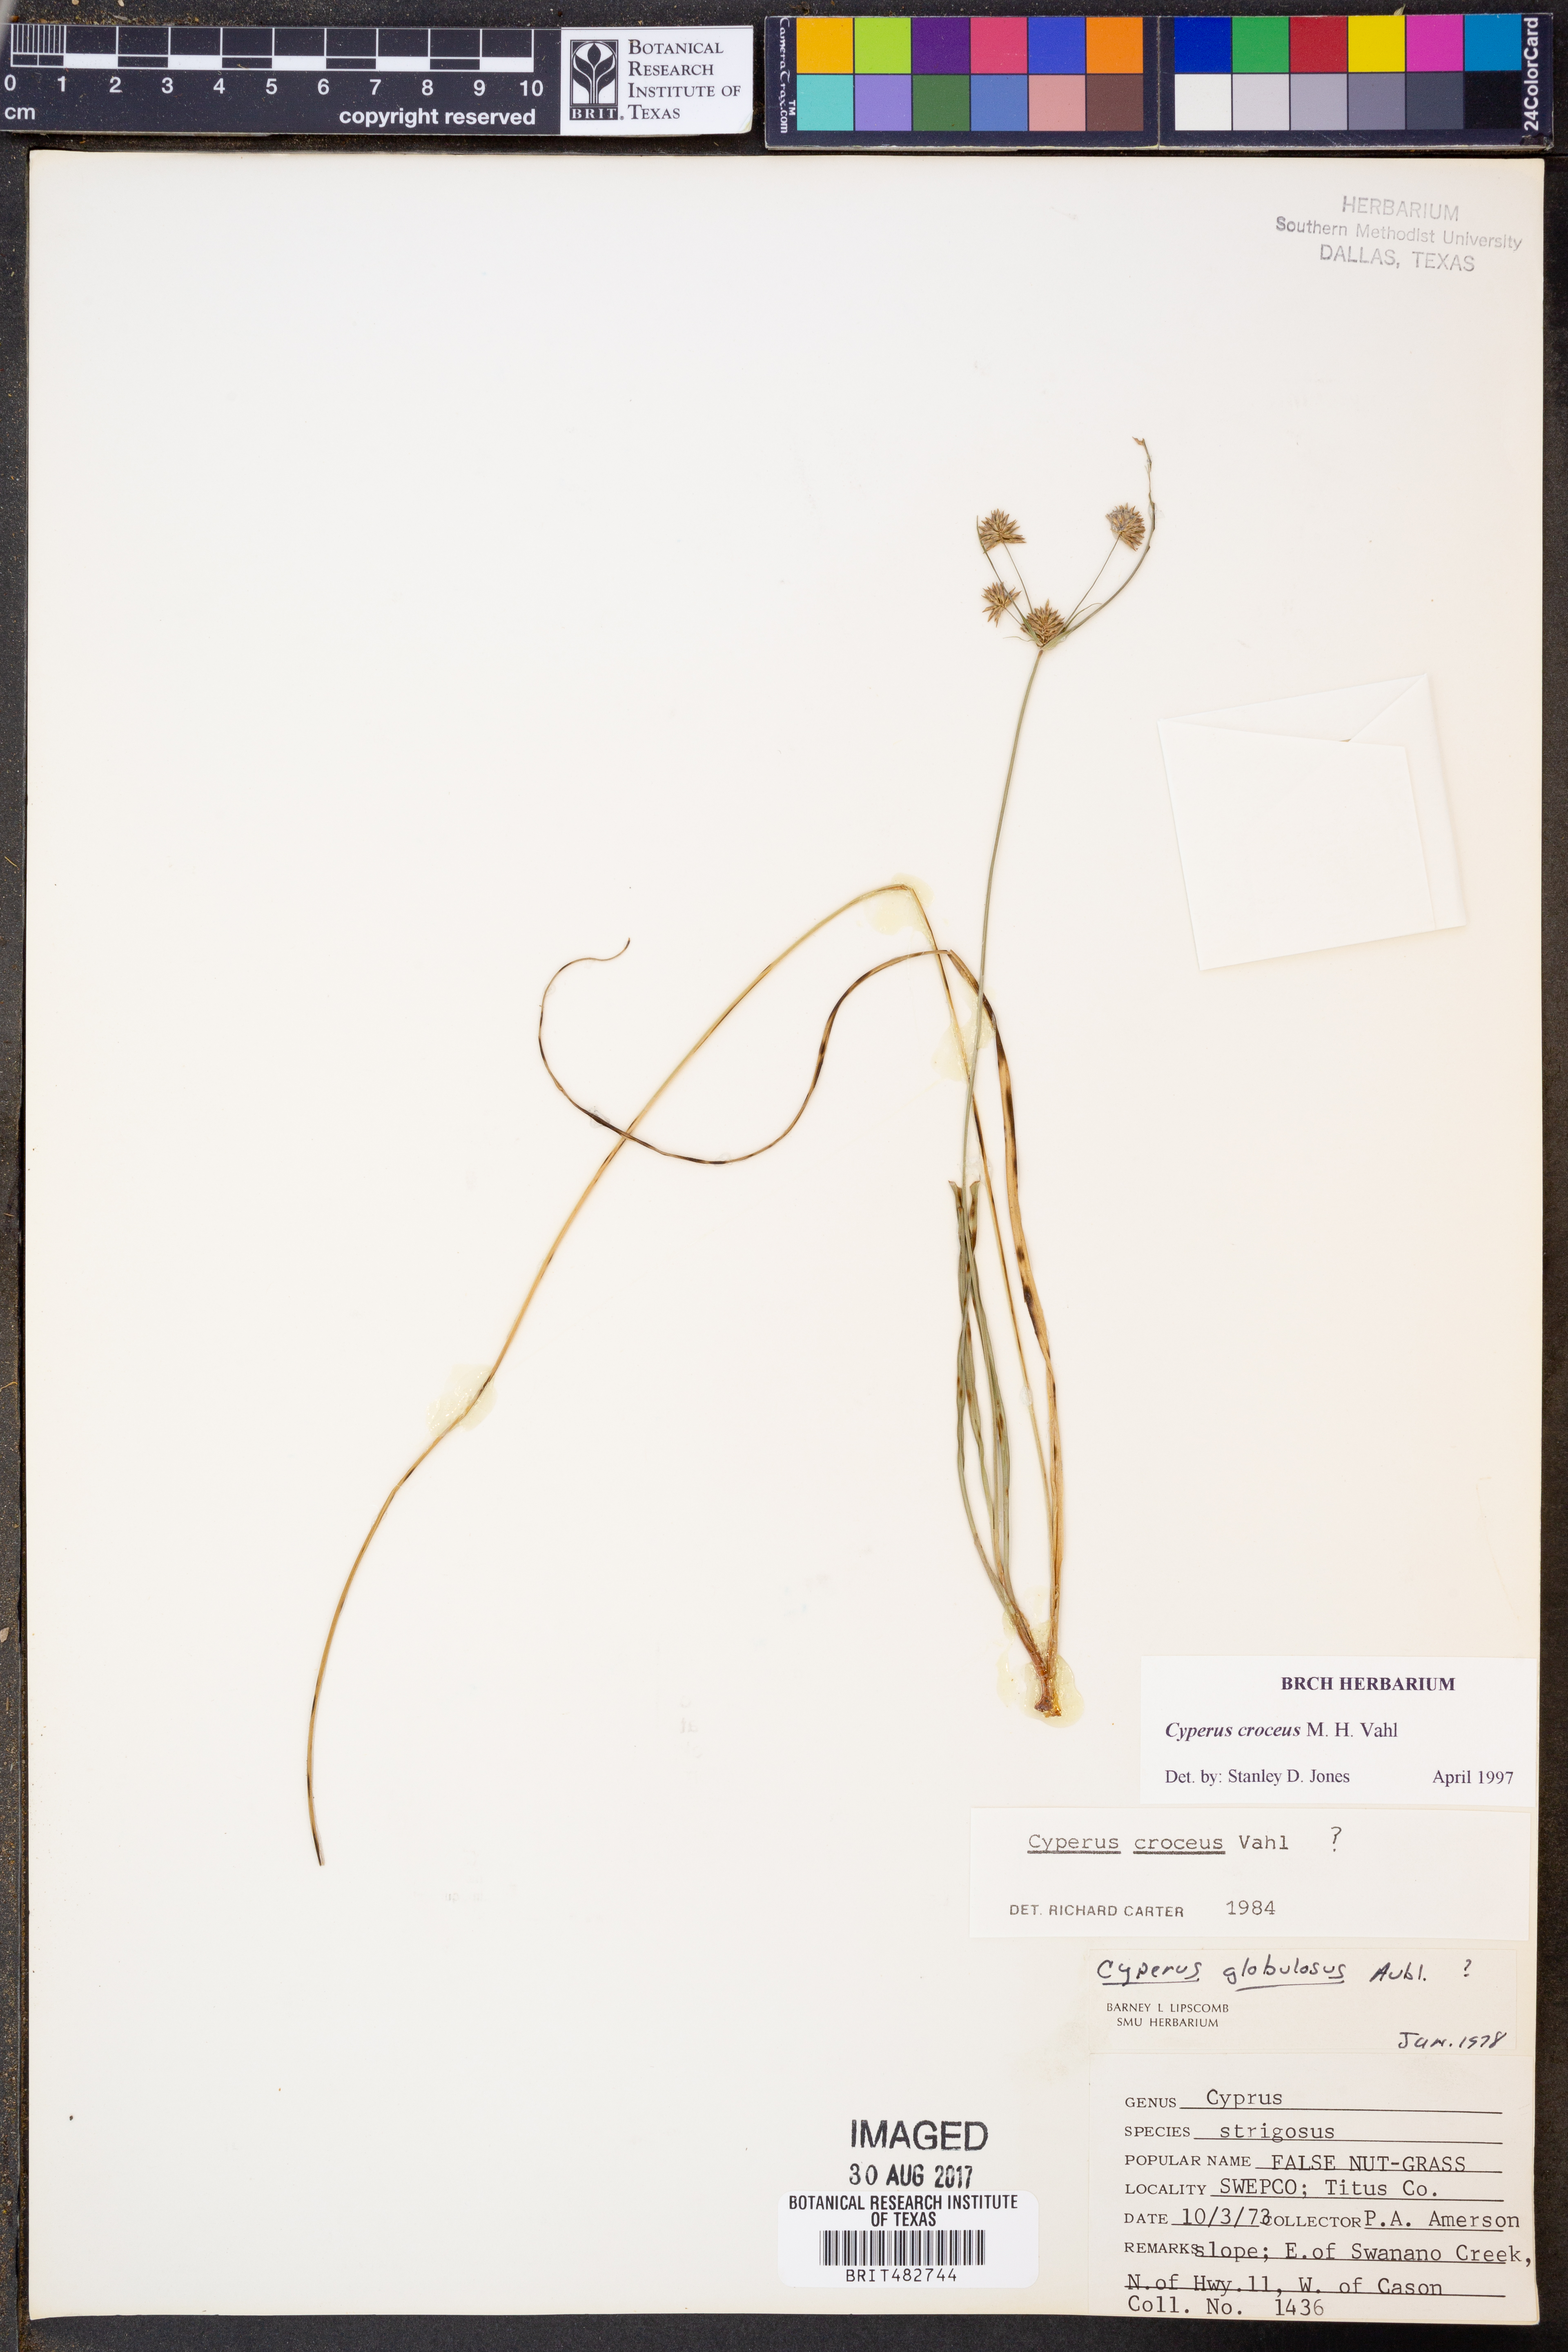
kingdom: Plantae
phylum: Tracheophyta
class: Liliopsida
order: Poales
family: Cyperaceae
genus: Cyperus
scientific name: Cyperus croceus
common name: Baldwin's flatsedge
